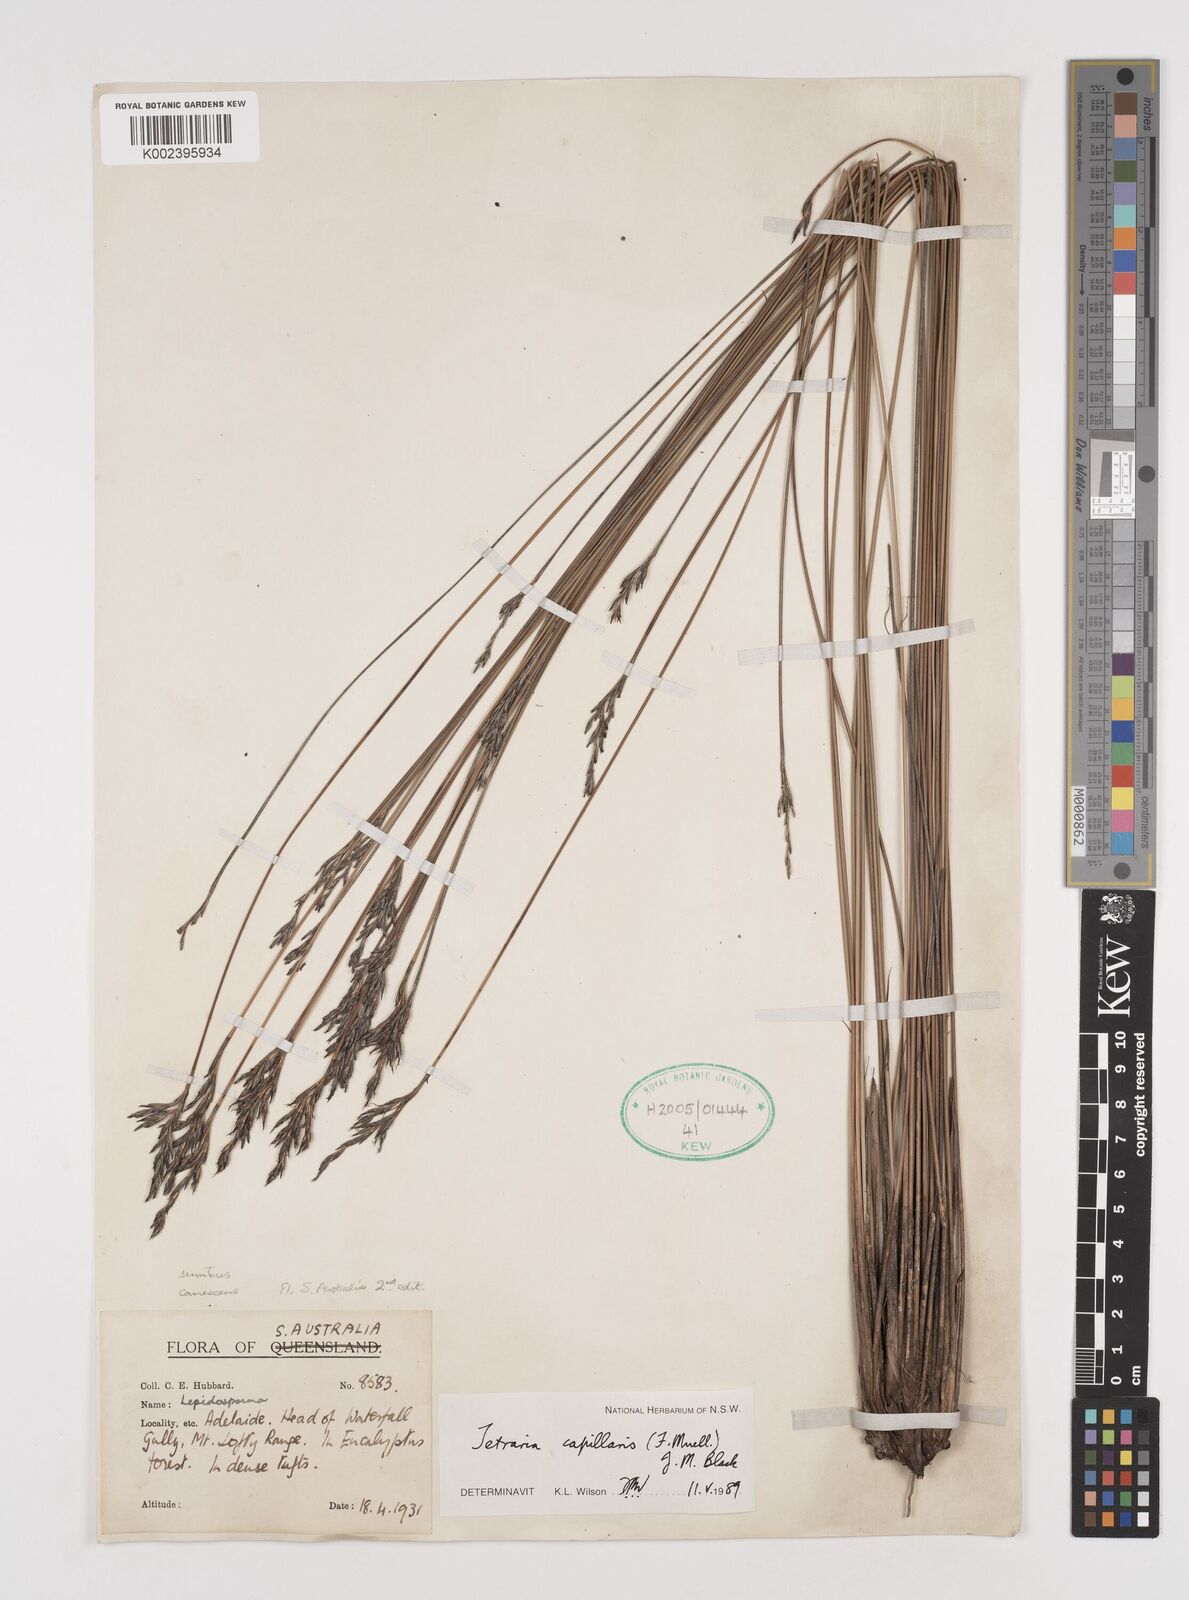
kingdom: Plantae
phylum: Tracheophyta
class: Liliopsida
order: Poales
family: Cyperaceae
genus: Tetraria
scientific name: Tetraria capillaris
